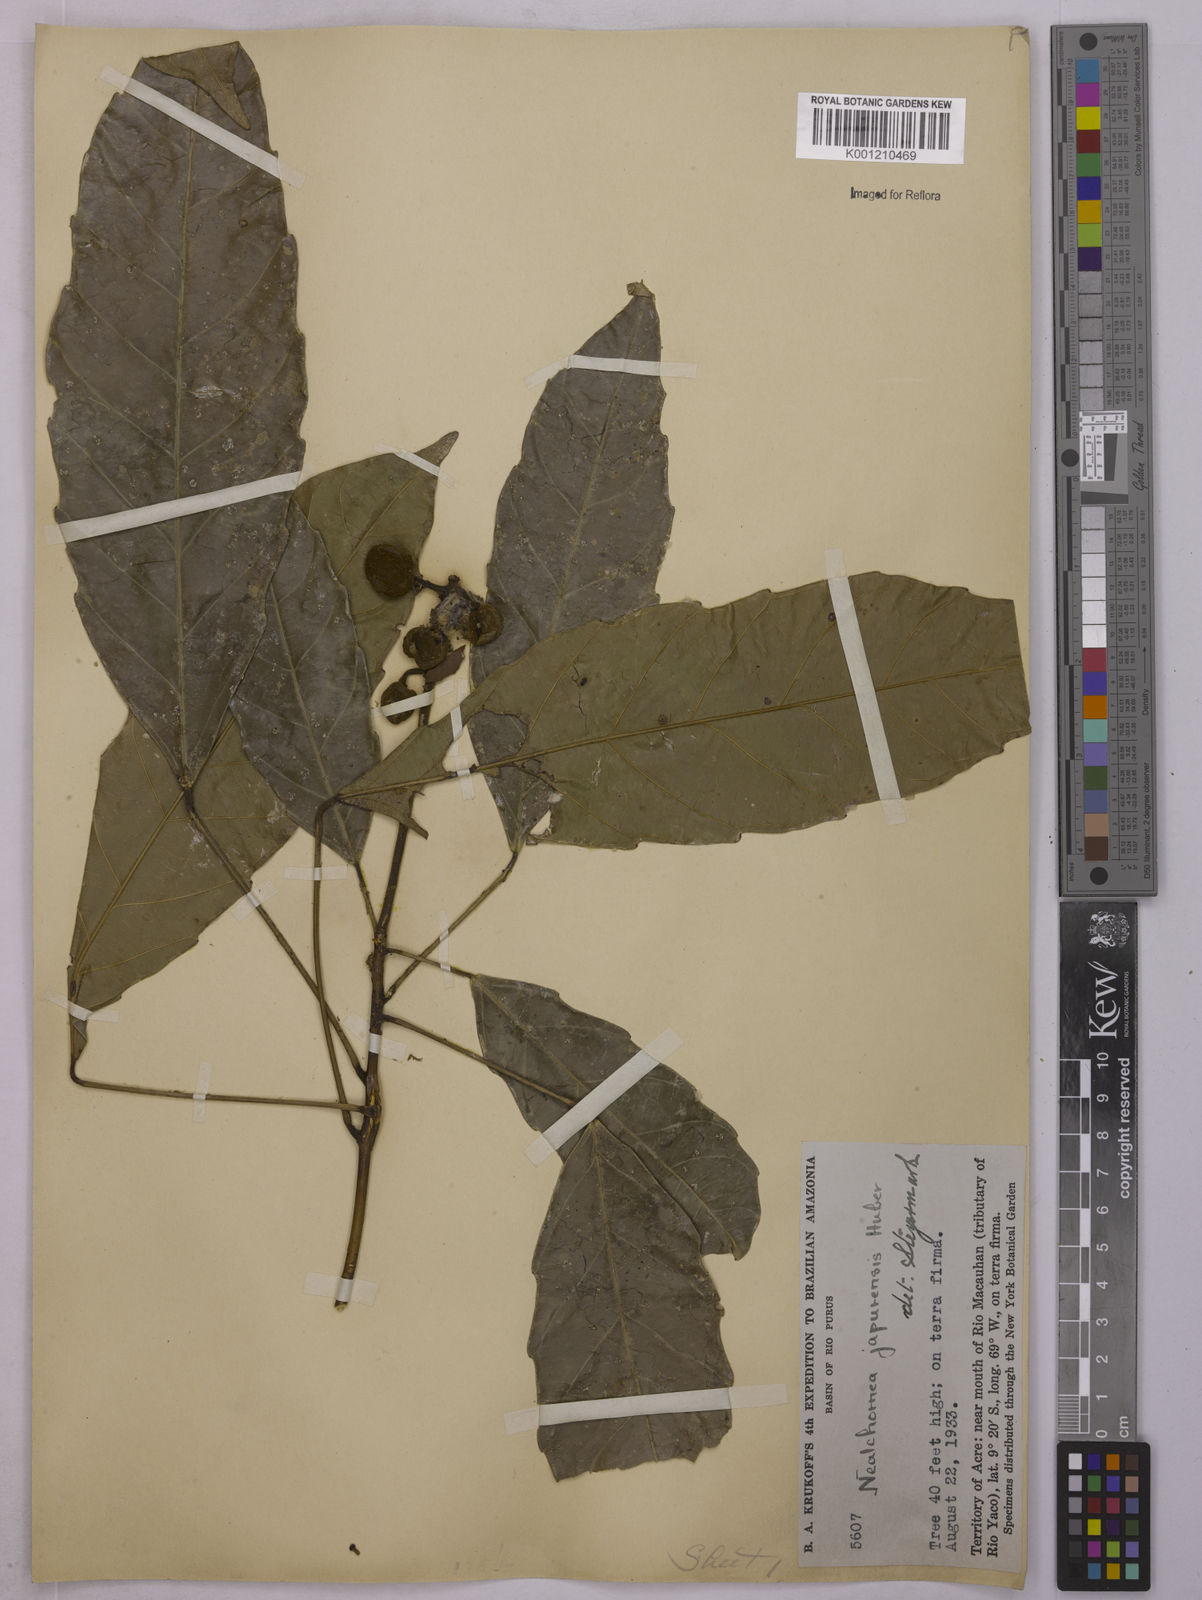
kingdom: Plantae
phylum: Tracheophyta
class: Magnoliopsida
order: Malpighiales
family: Euphorbiaceae
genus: Nealchornea
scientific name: Nealchornea yapurensis
